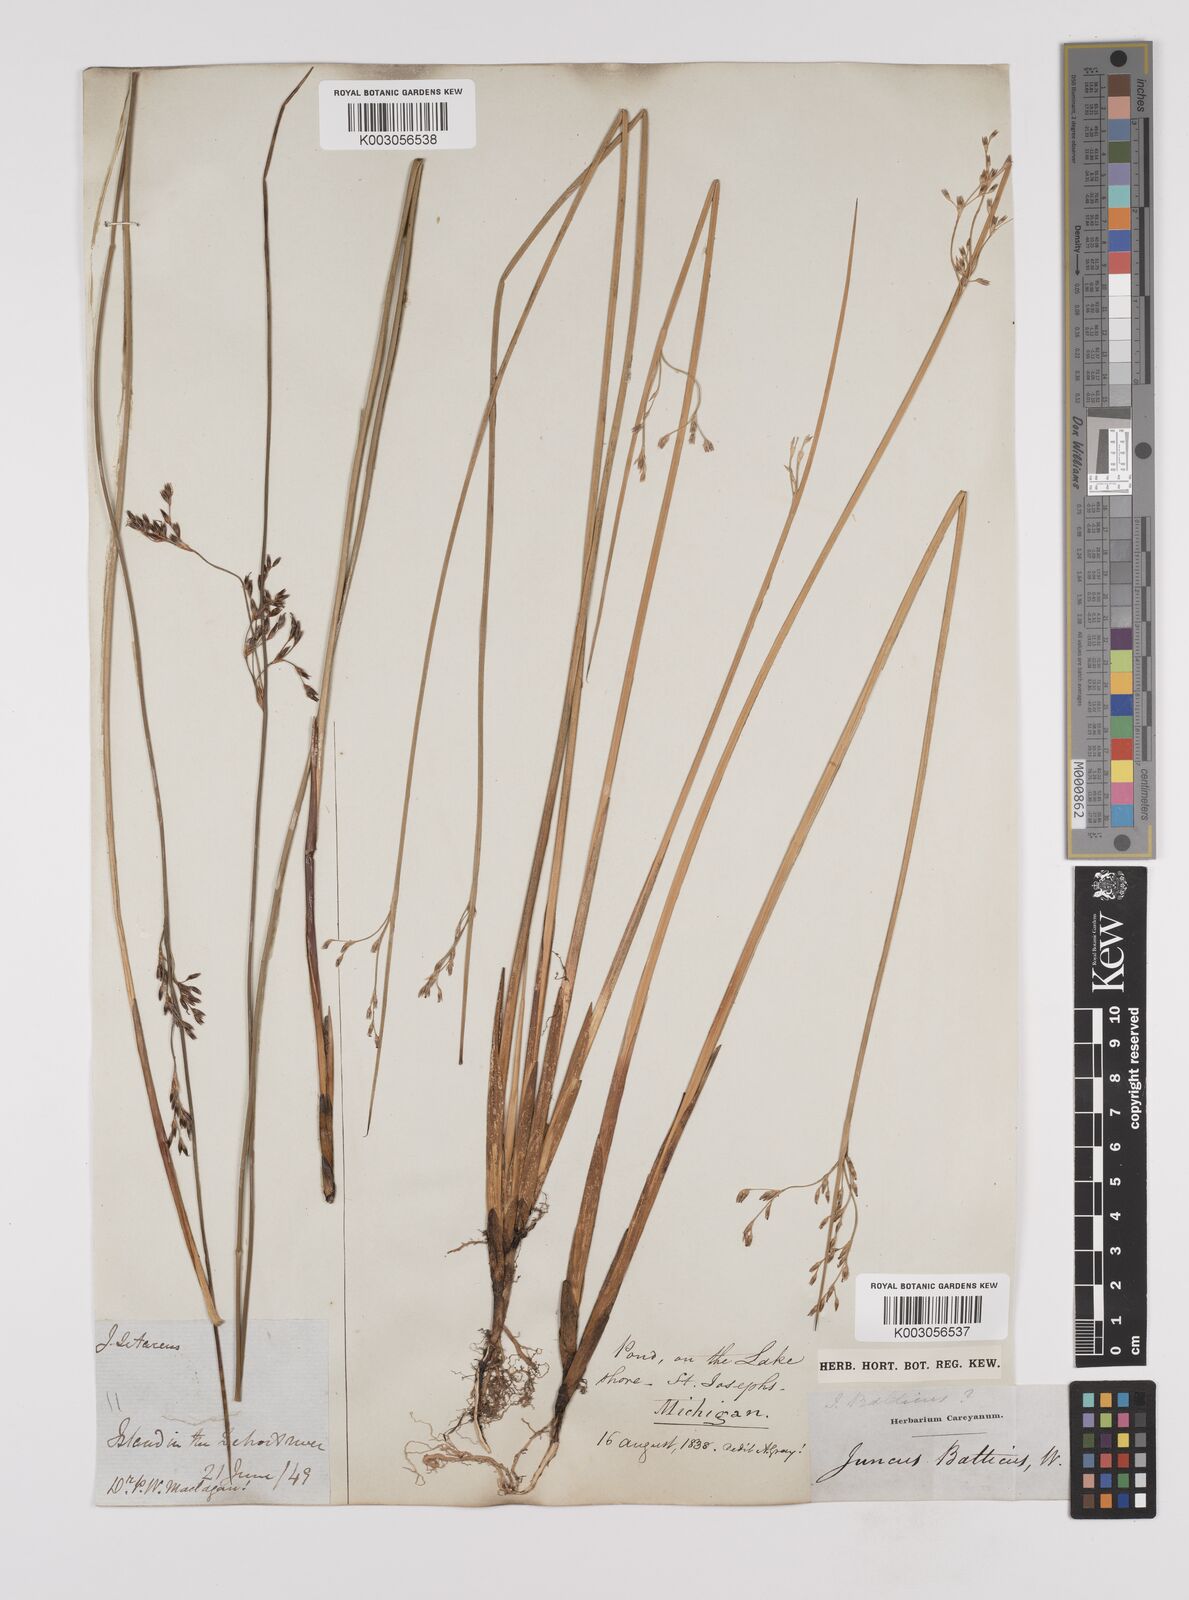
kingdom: Plantae
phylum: Tracheophyta
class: Liliopsida
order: Poales
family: Juncaceae
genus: Juncus
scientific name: Juncus balticus
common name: Baltic rush
